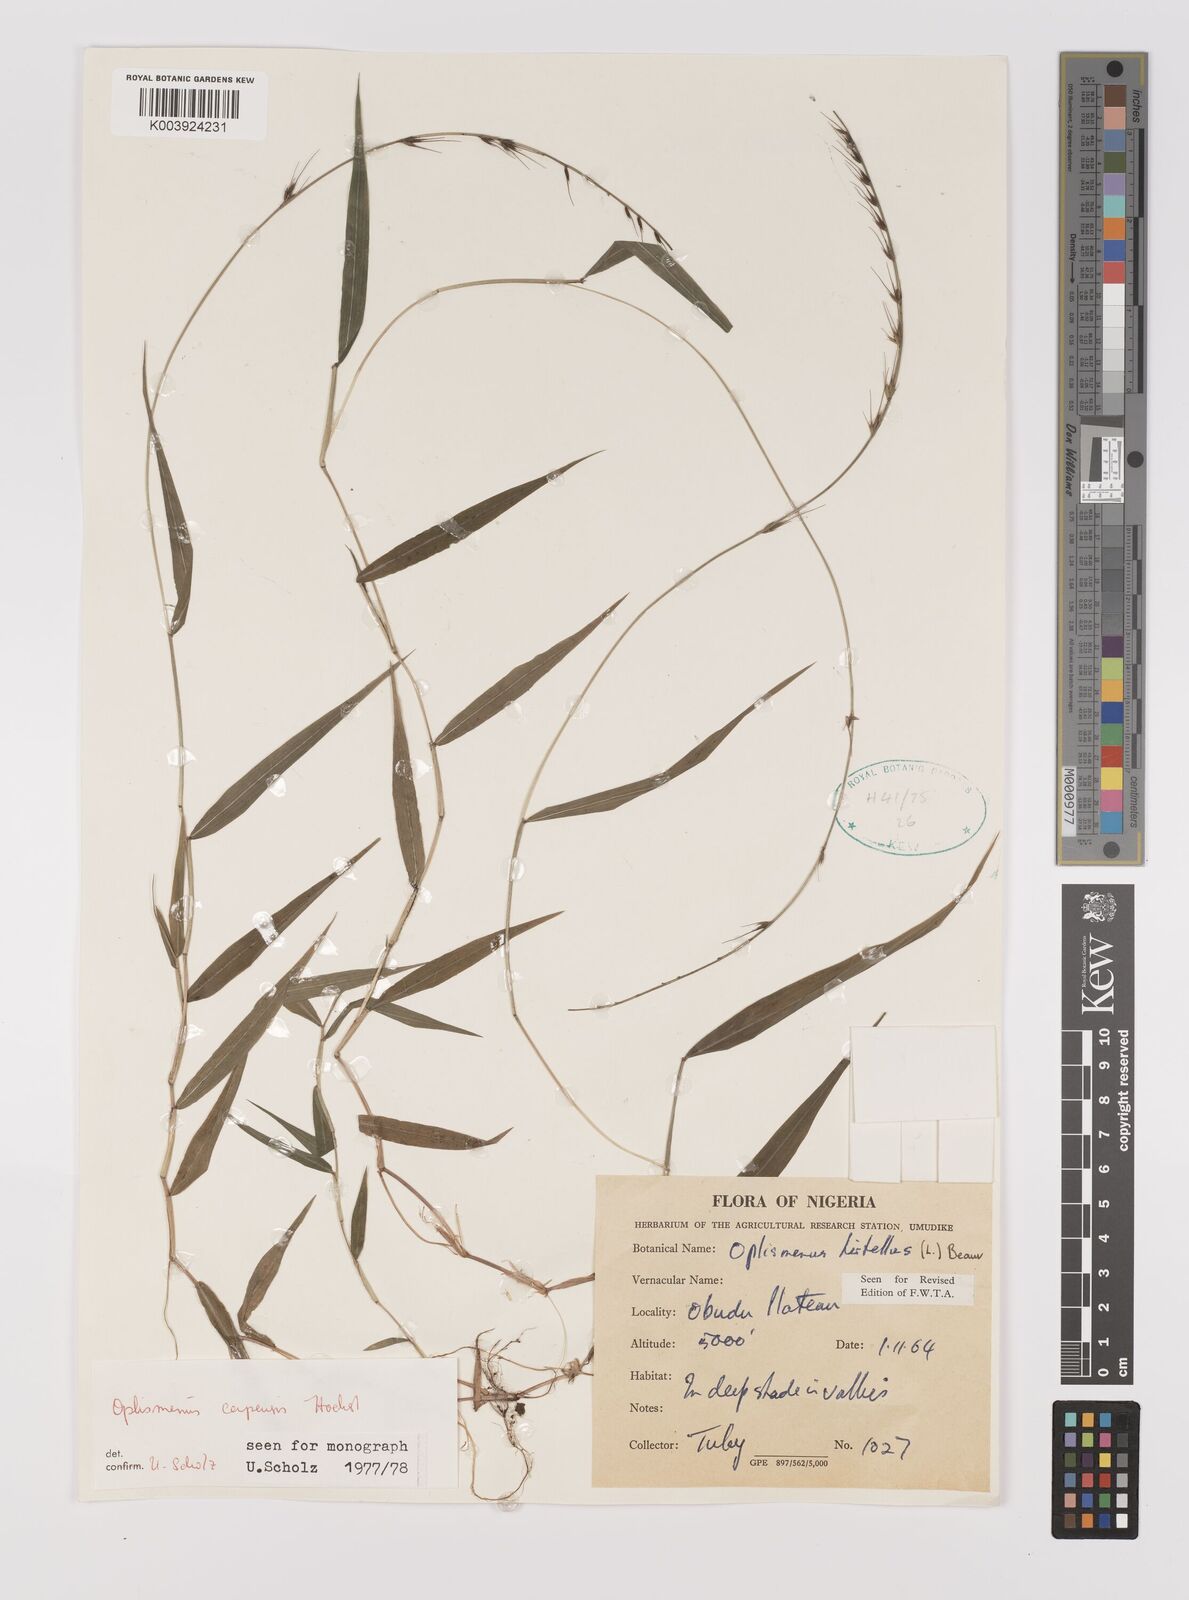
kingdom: Plantae
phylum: Tracheophyta
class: Liliopsida
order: Poales
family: Poaceae
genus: Oplismenus
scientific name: Oplismenus hirtellus
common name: Basketgrass
